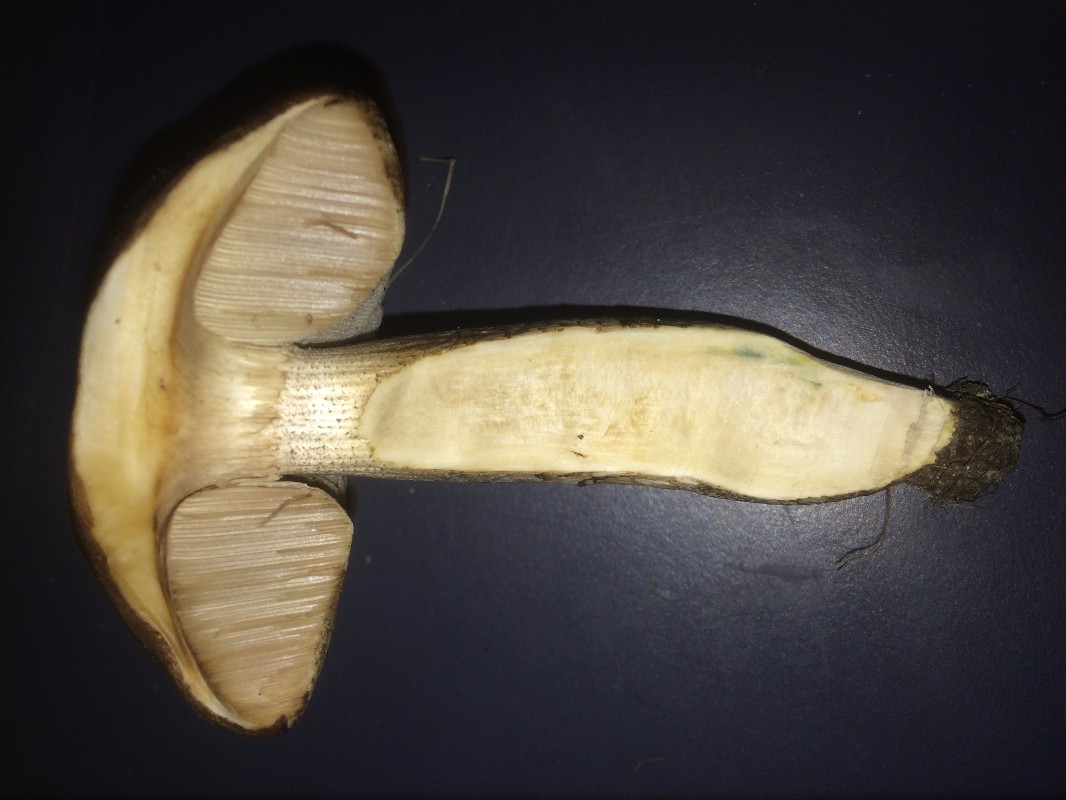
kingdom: Fungi
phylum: Basidiomycota
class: Agaricomycetes
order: Boletales
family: Boletaceae
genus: Leccinum
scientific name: Leccinum cyaneobasileucum
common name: almindelig skælrørhat
